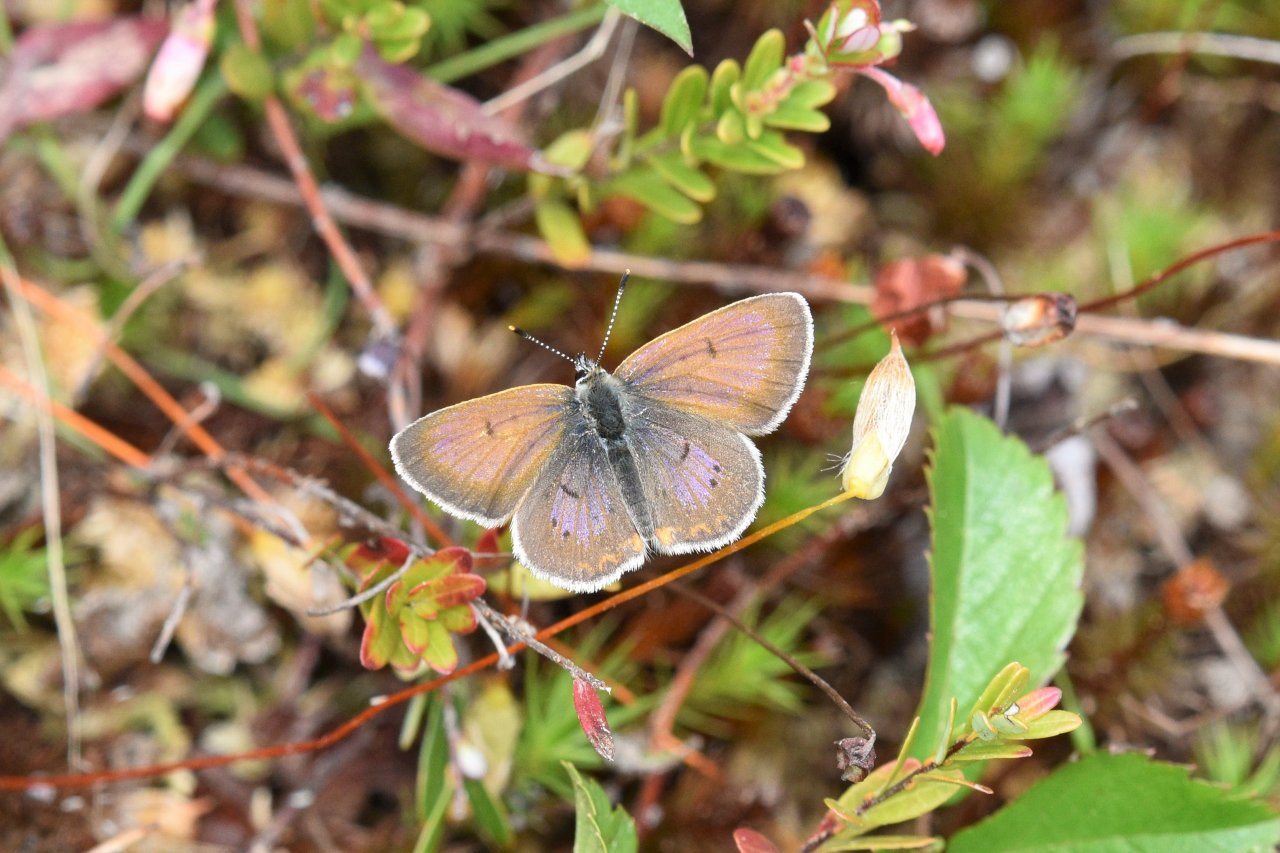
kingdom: Animalia
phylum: Arthropoda
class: Insecta
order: Lepidoptera
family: Sesiidae
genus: Sesia
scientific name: Sesia Lycaena epixanthe
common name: Bog Copper
